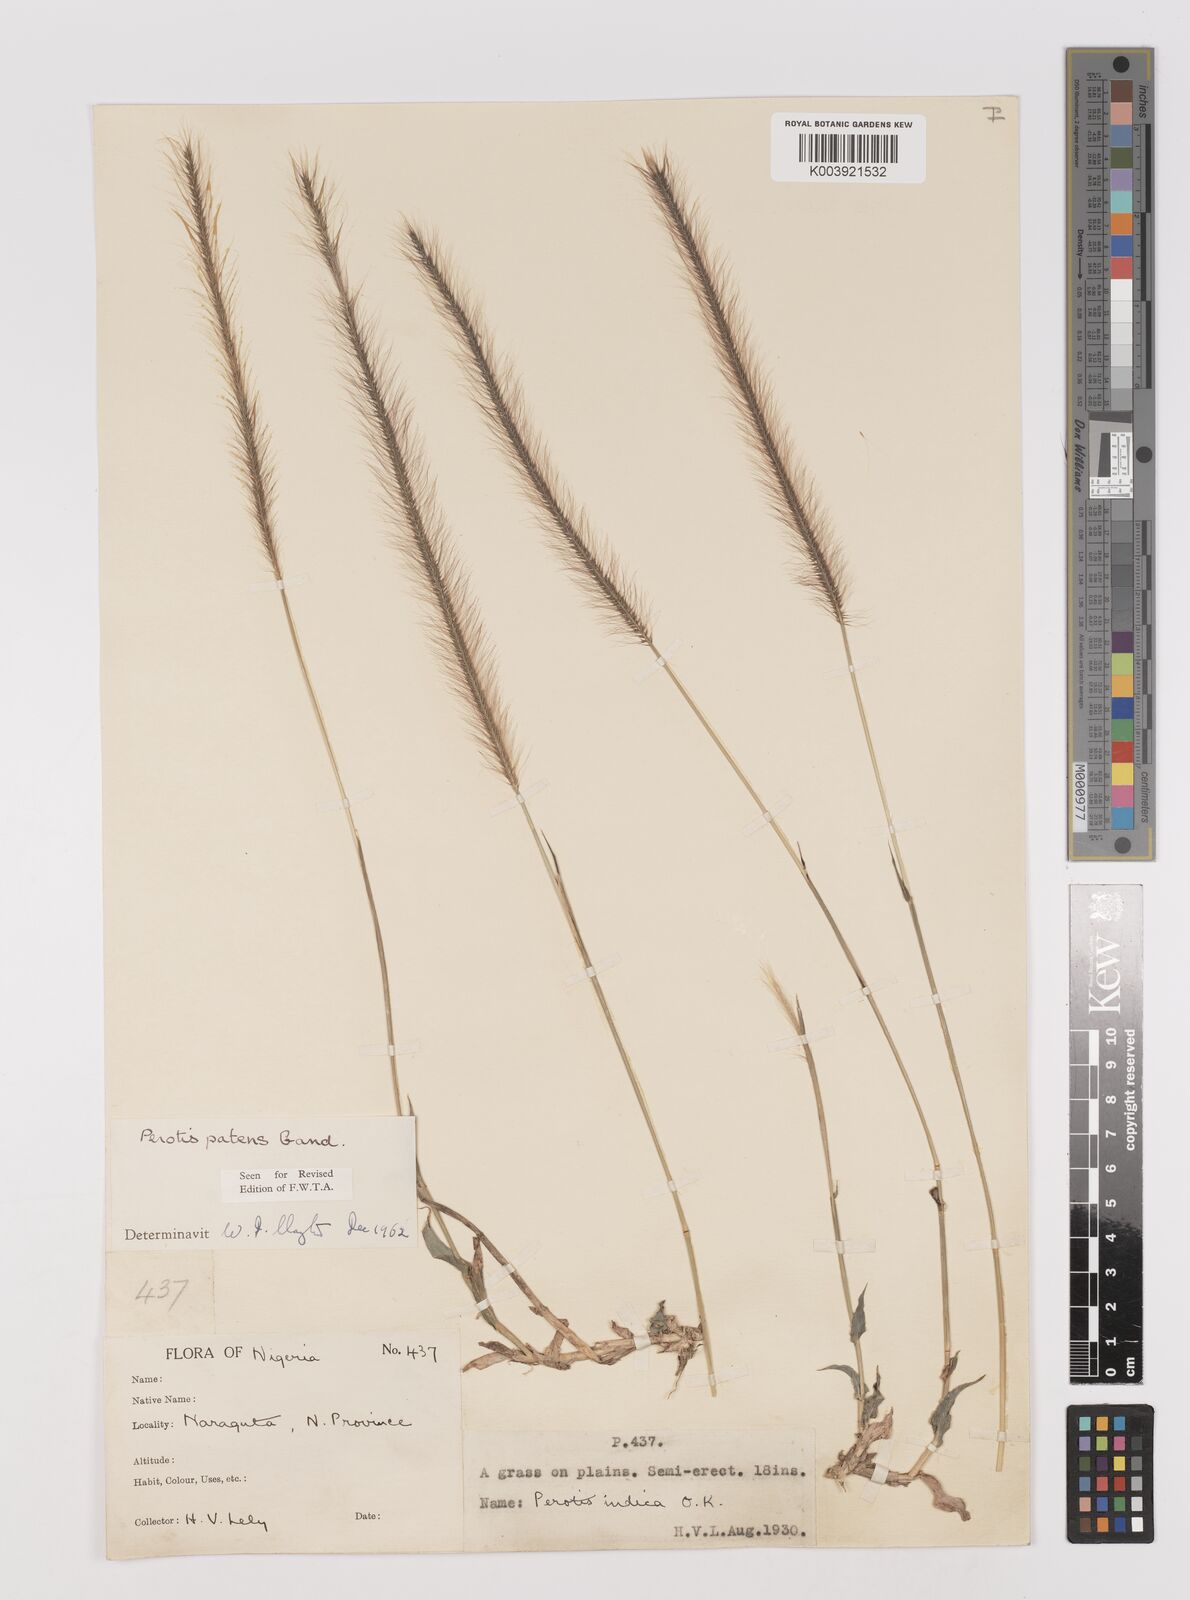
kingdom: Plantae
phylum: Tracheophyta
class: Liliopsida
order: Poales
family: Poaceae
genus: Perotis
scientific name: Perotis patens
